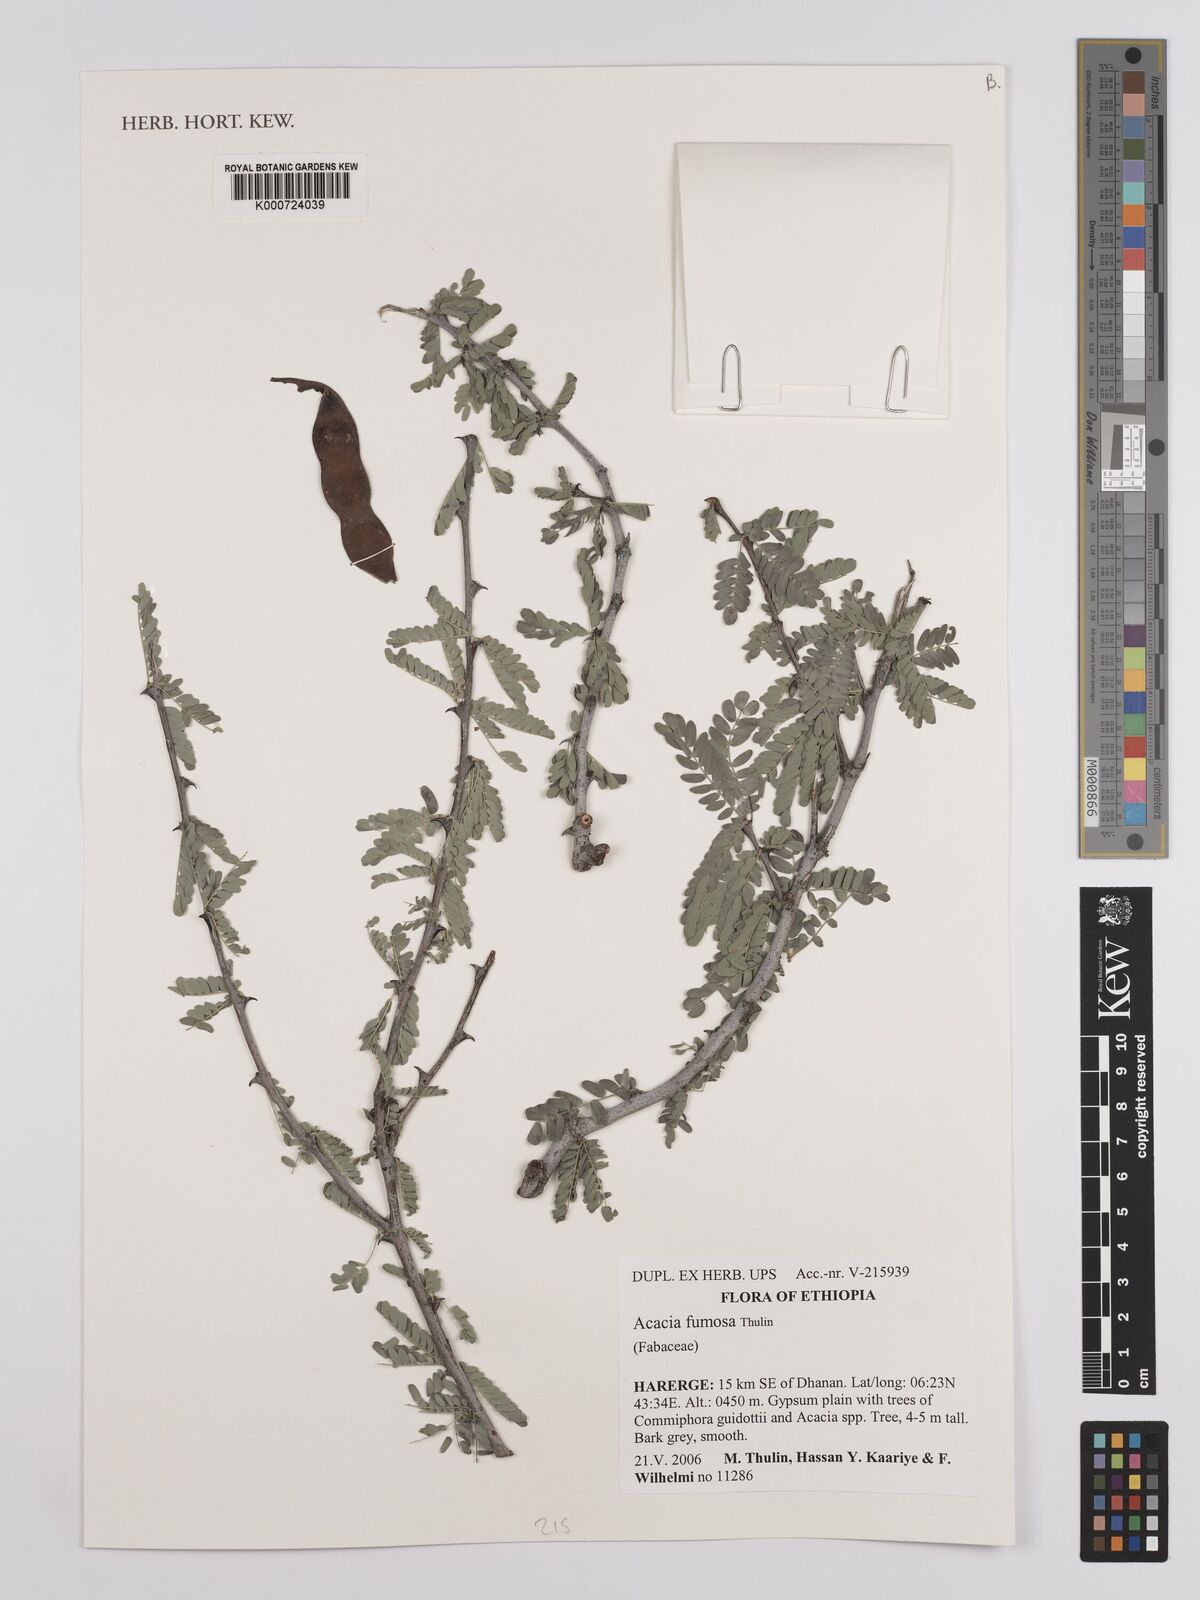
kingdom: Plantae
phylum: Tracheophyta
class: Magnoliopsida
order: Fabales
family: Fabaceae
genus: Senegalia
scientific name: Senegalia fumosa
